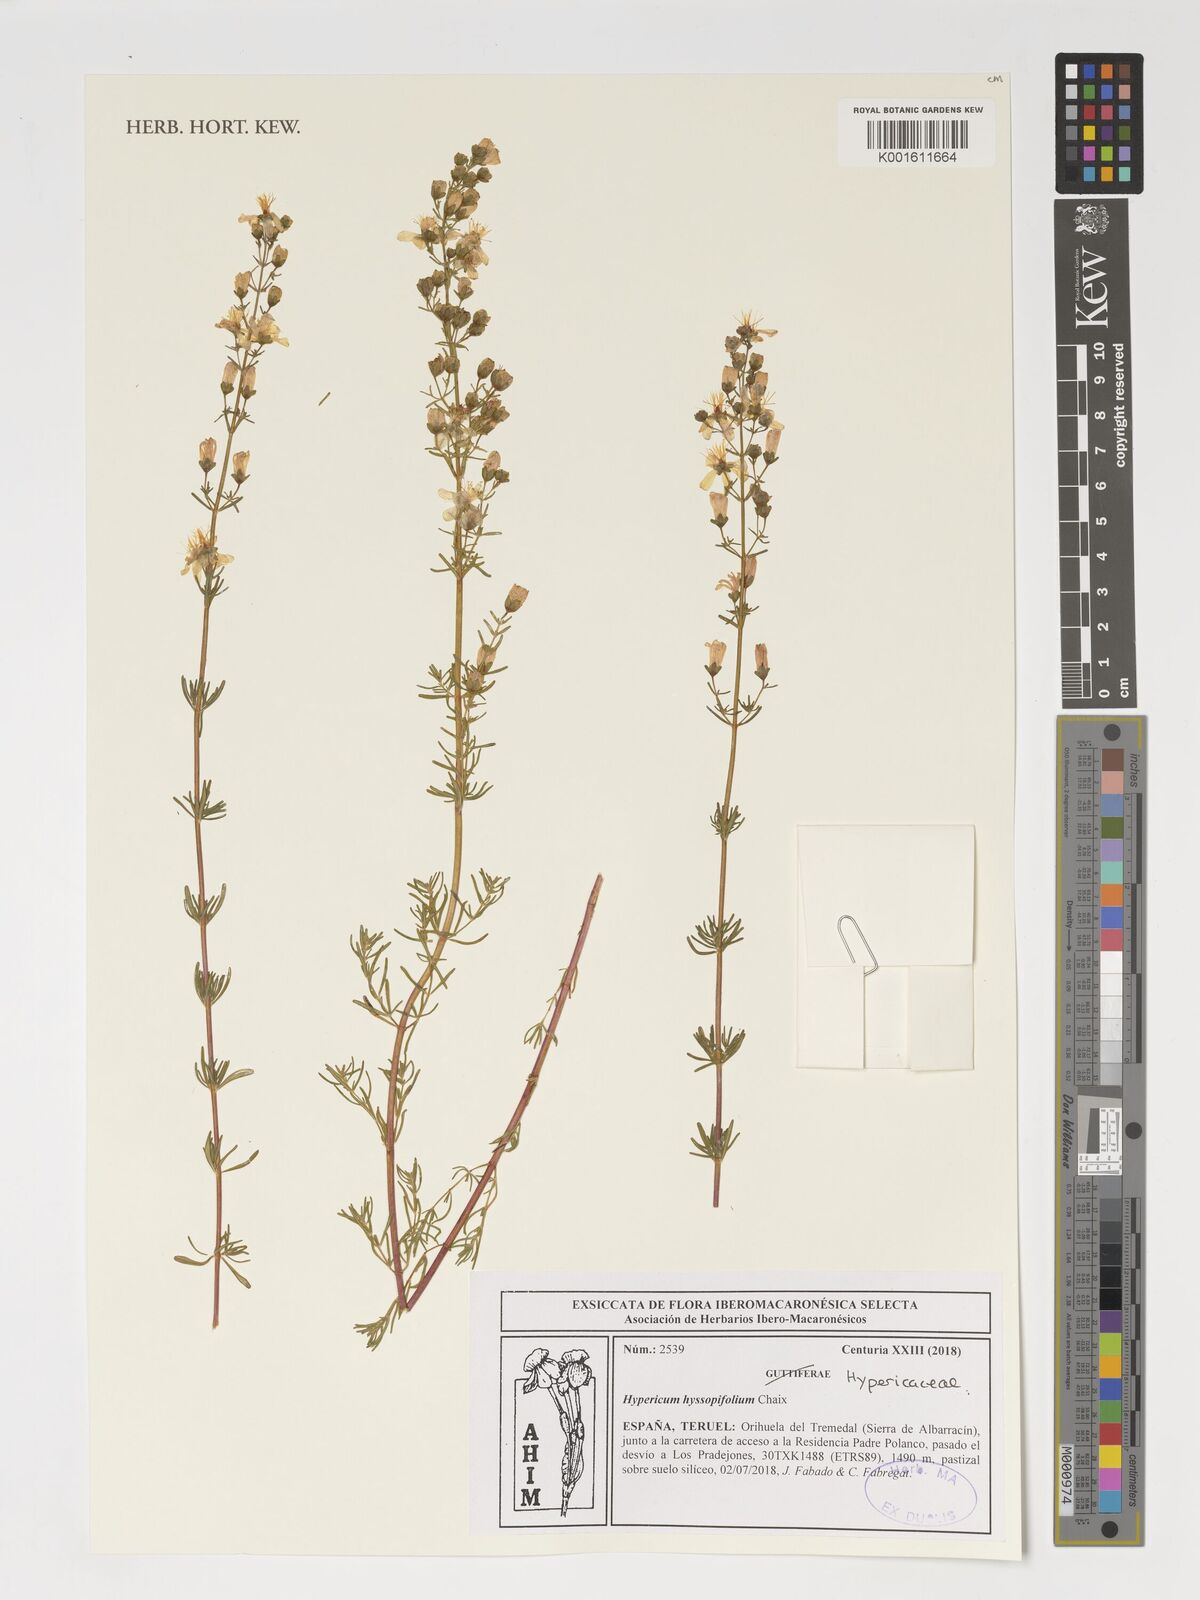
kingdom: Plantae
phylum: Tracheophyta
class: Magnoliopsida
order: Malpighiales
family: Hypericaceae
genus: Hypericum
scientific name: Hypericum hyssopifolium
